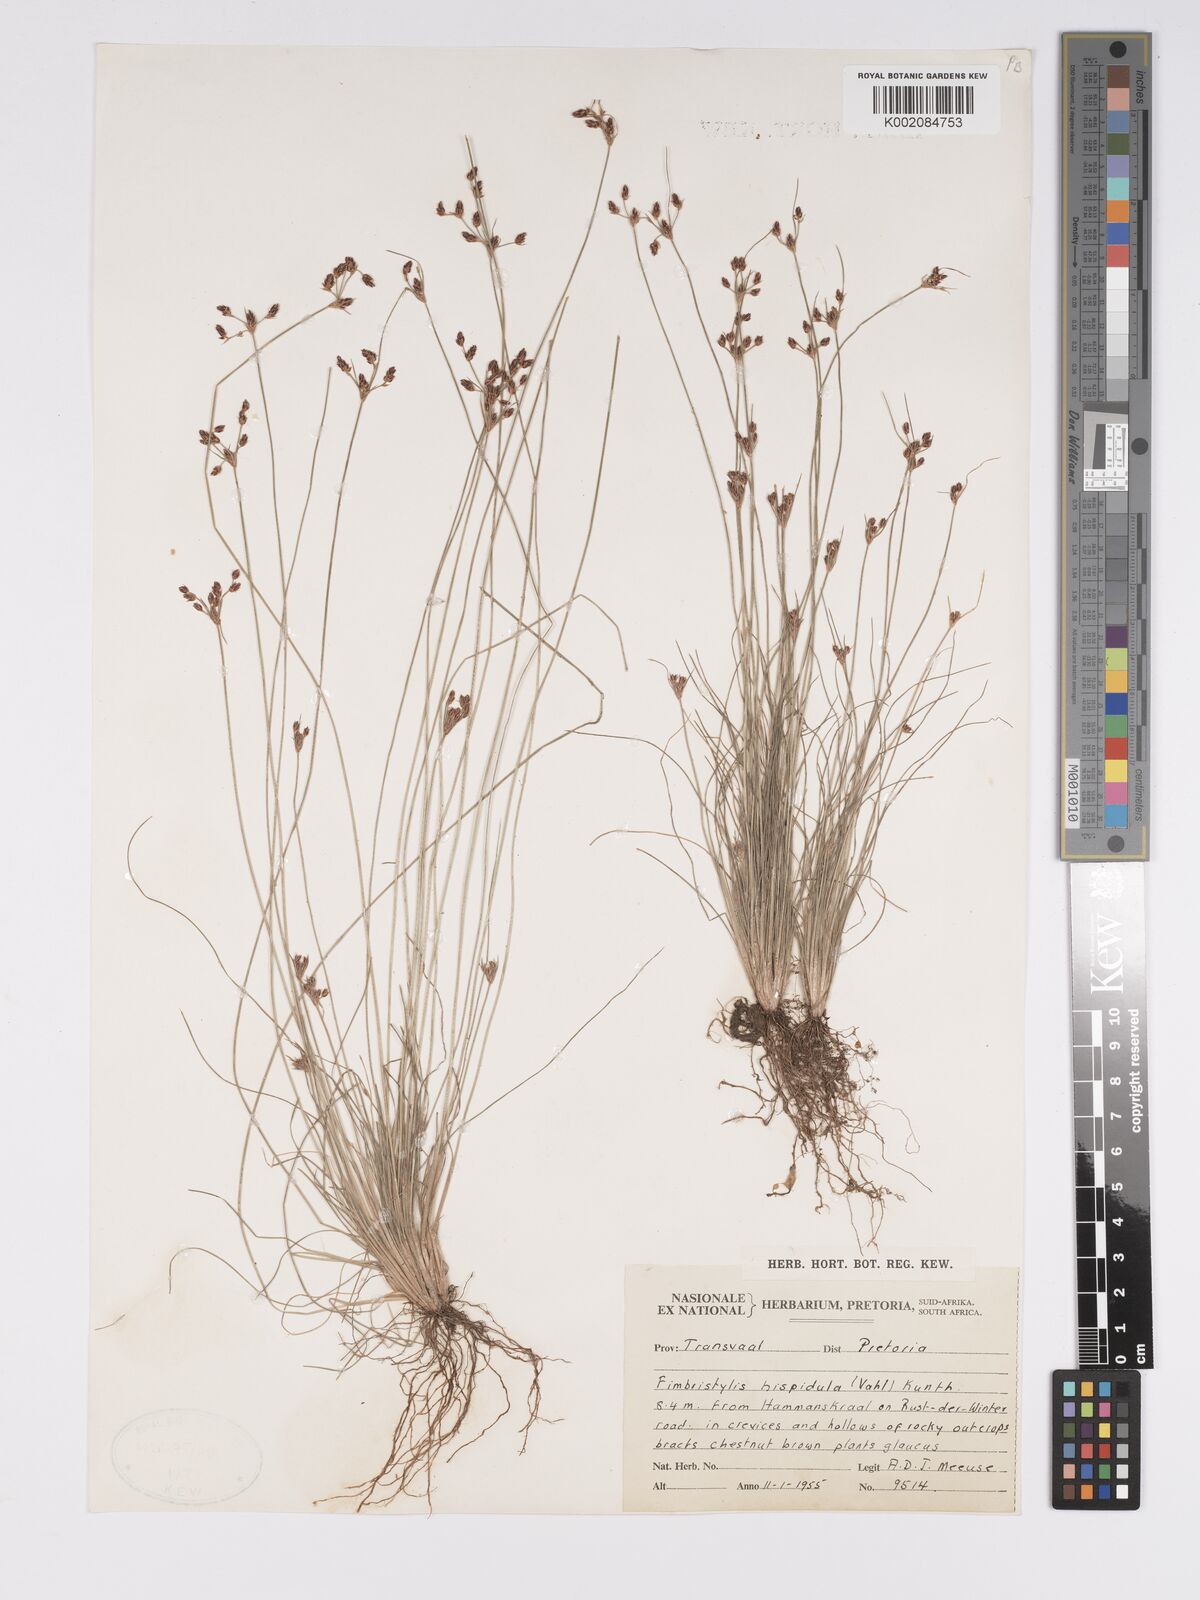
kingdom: Plantae
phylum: Tracheophyta
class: Liliopsida
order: Poales
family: Cyperaceae
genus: Bulbostylis
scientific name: Bulbostylis
